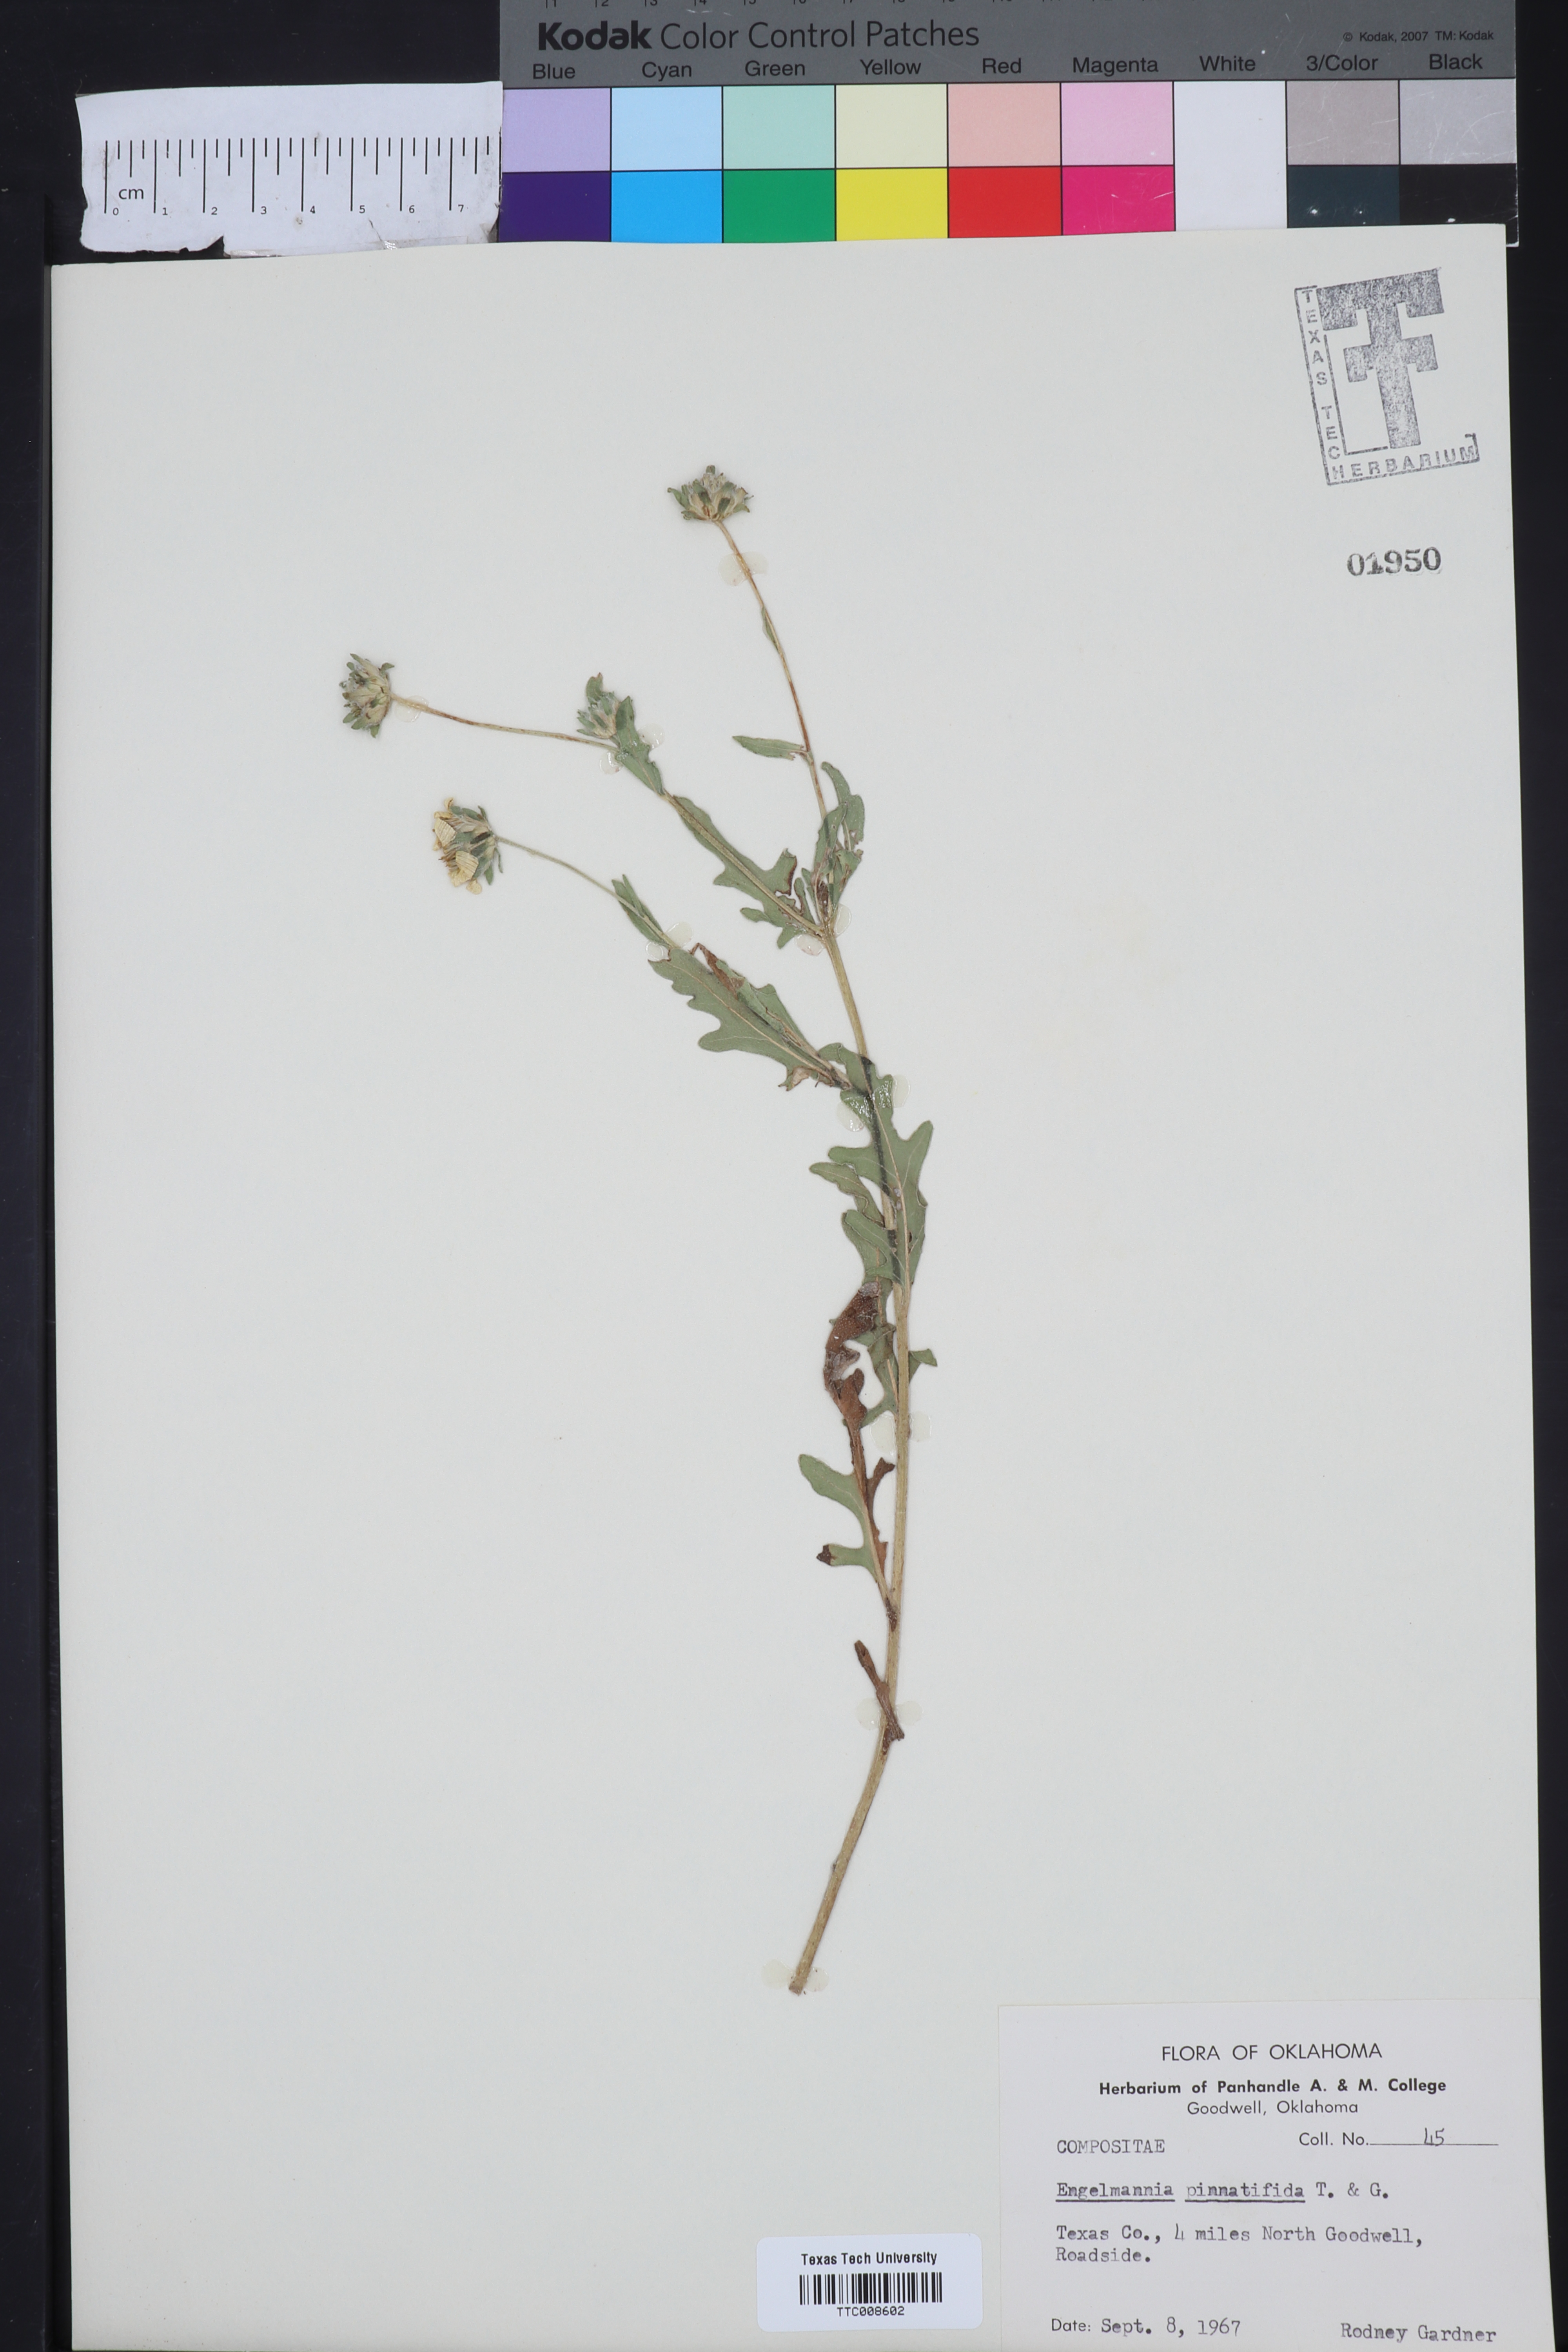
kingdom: Plantae
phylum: Tracheophyta
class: Magnoliopsida
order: Asterales
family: Asteraceae
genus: Engelmannia
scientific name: Engelmannia peristenia
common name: Engelmann's daisy
